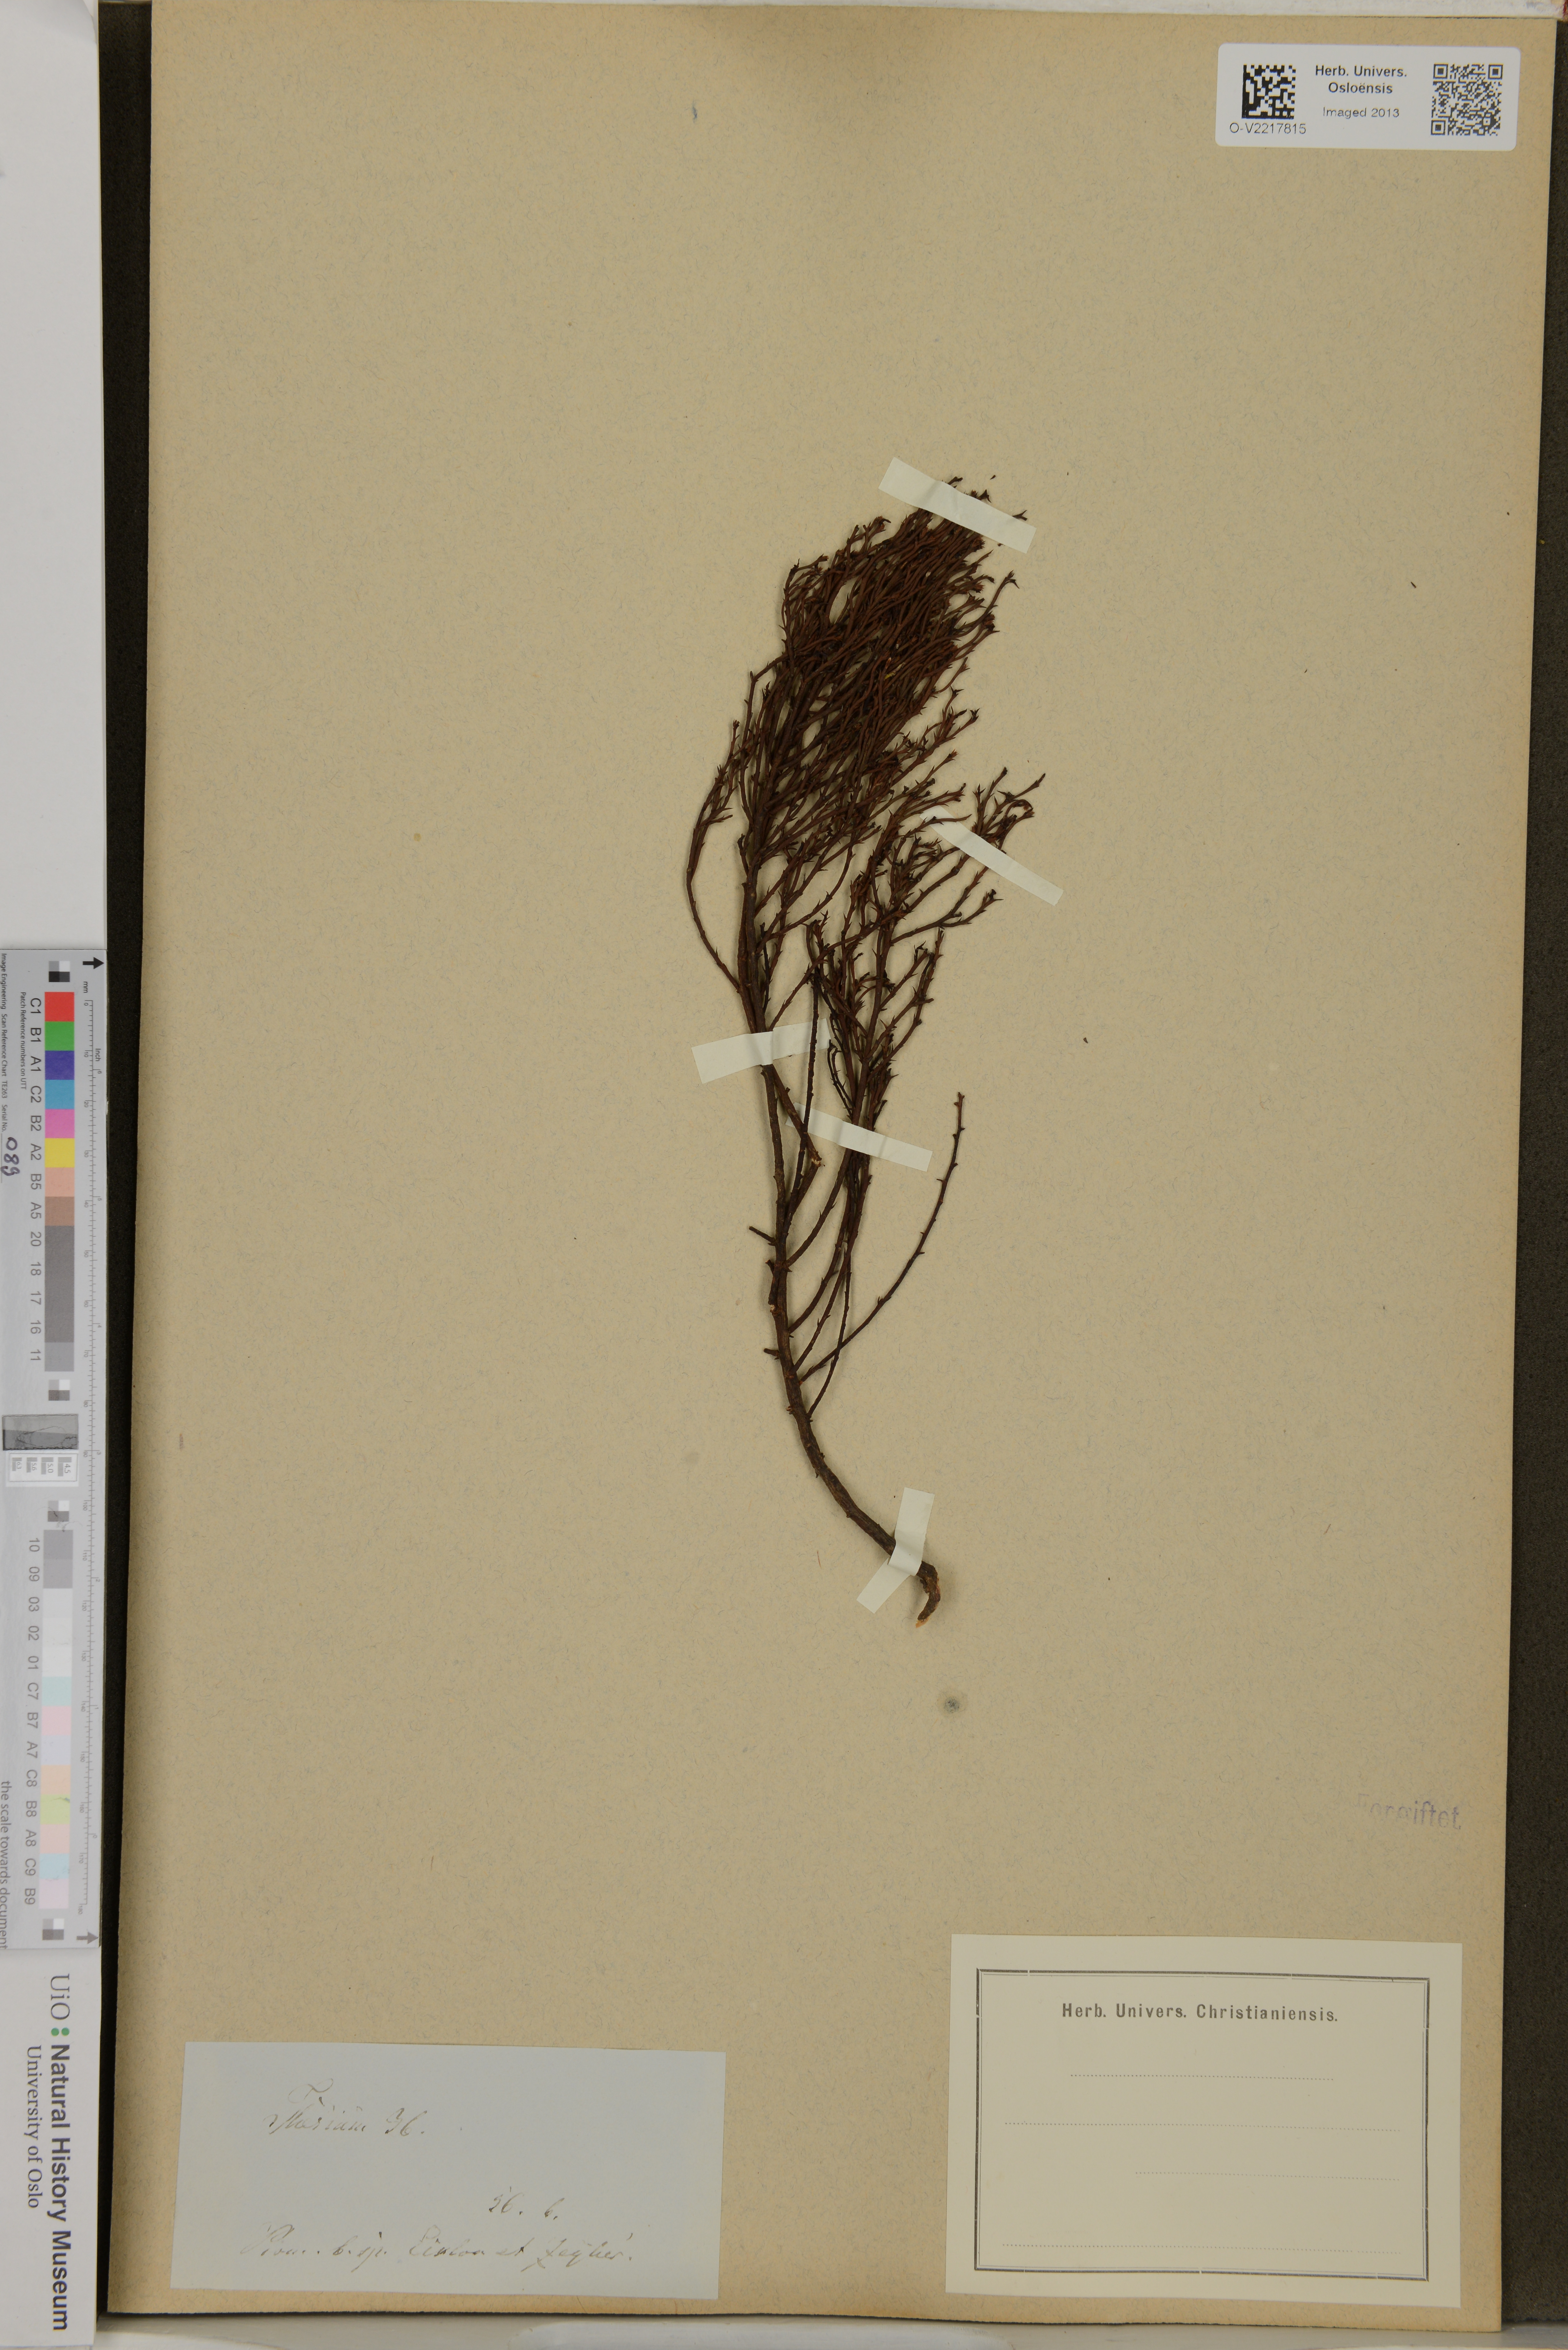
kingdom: Plantae
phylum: Tracheophyta
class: Magnoliopsida
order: Santalales
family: Thesiaceae
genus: Thesium
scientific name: Thesium
